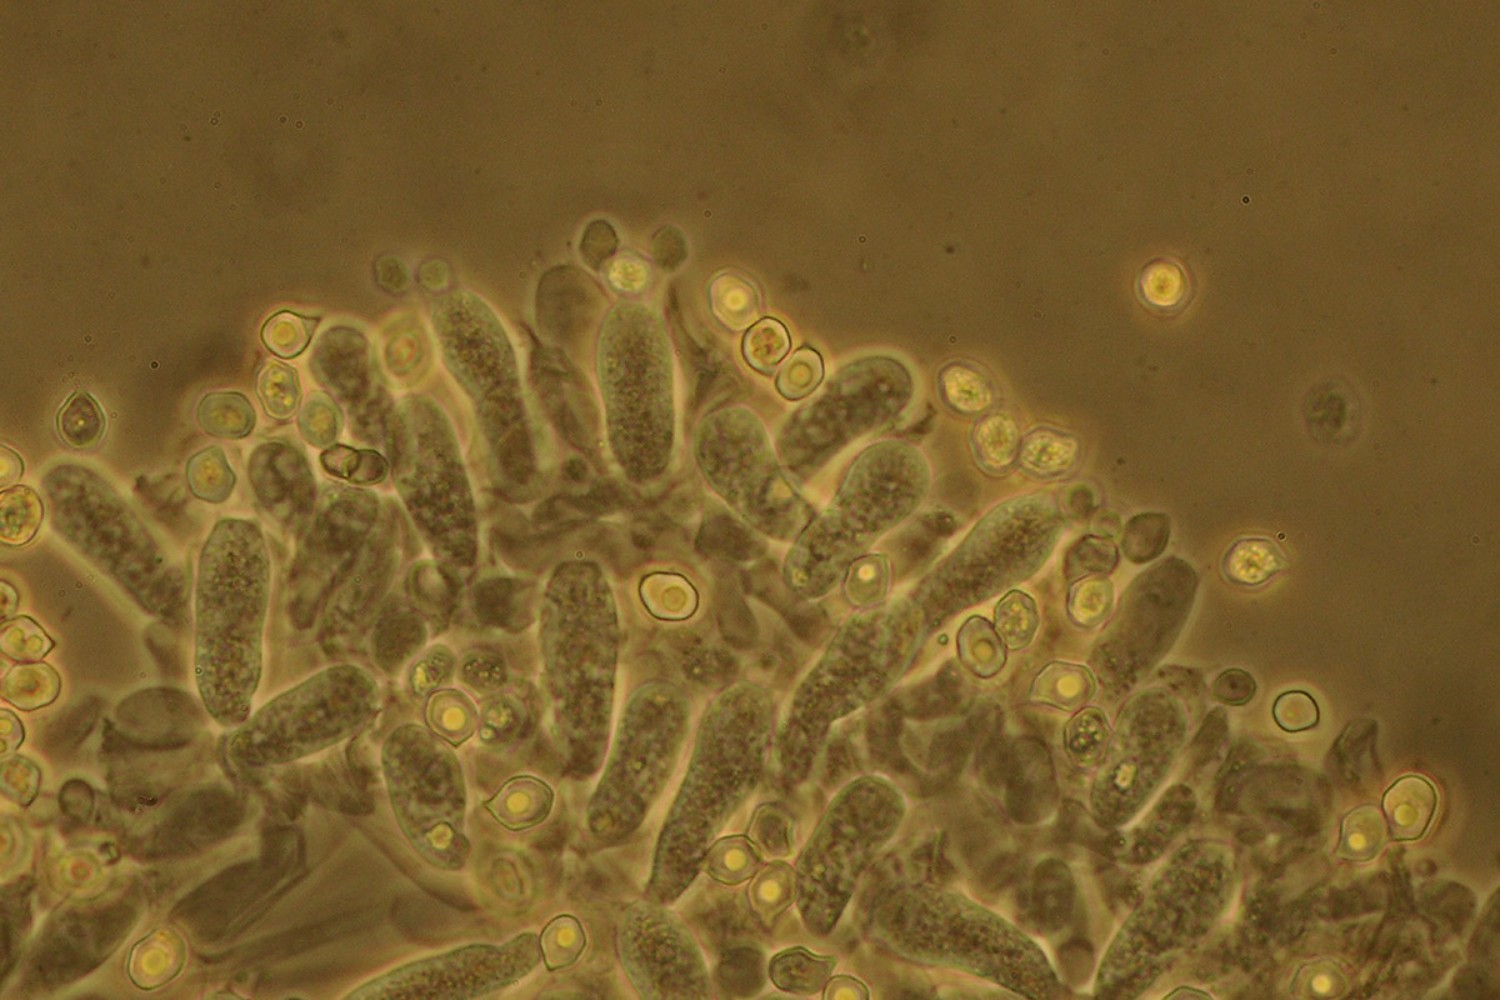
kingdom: Fungi
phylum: Basidiomycota
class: Agaricomycetes
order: Agaricales
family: Entolomataceae
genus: Entoloma
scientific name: Entoloma fernandae
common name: filtet rødblad
